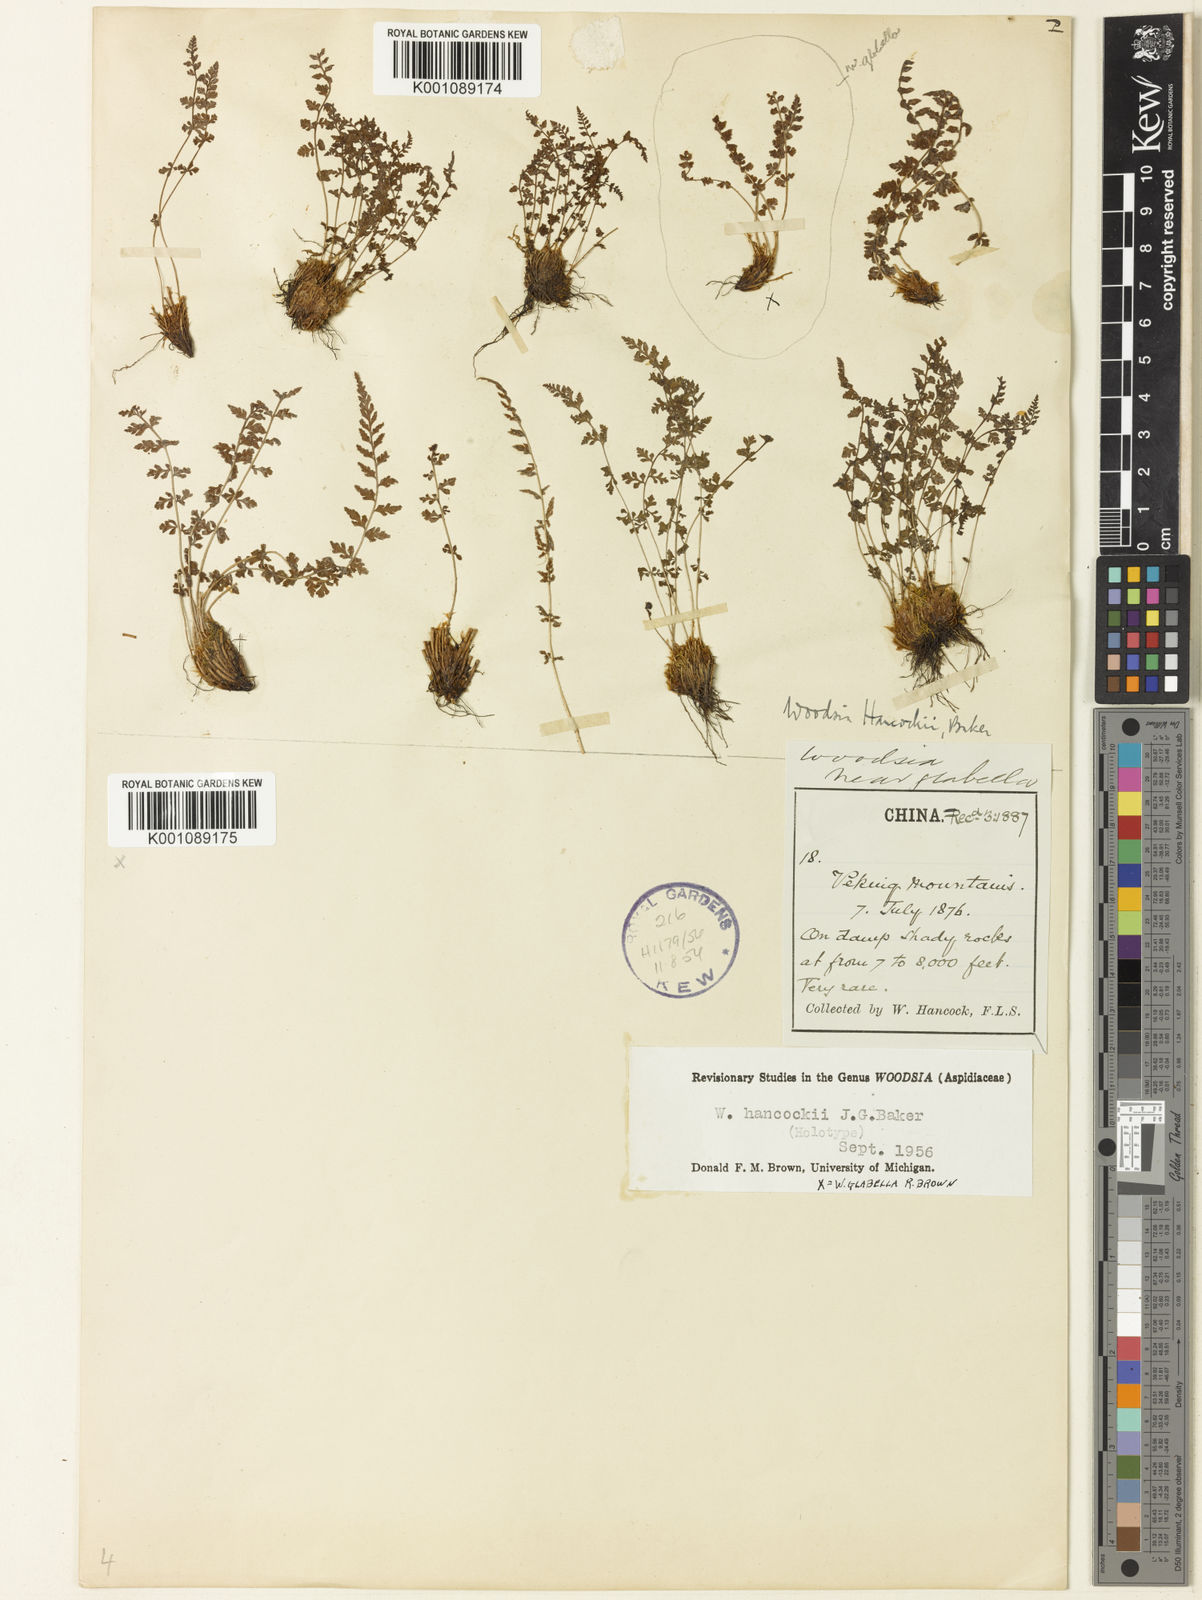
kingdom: Plantae
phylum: Tracheophyta
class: Polypodiopsida
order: Polypodiales
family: Woodsiaceae
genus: Woodsia
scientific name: Woodsia hancockii
